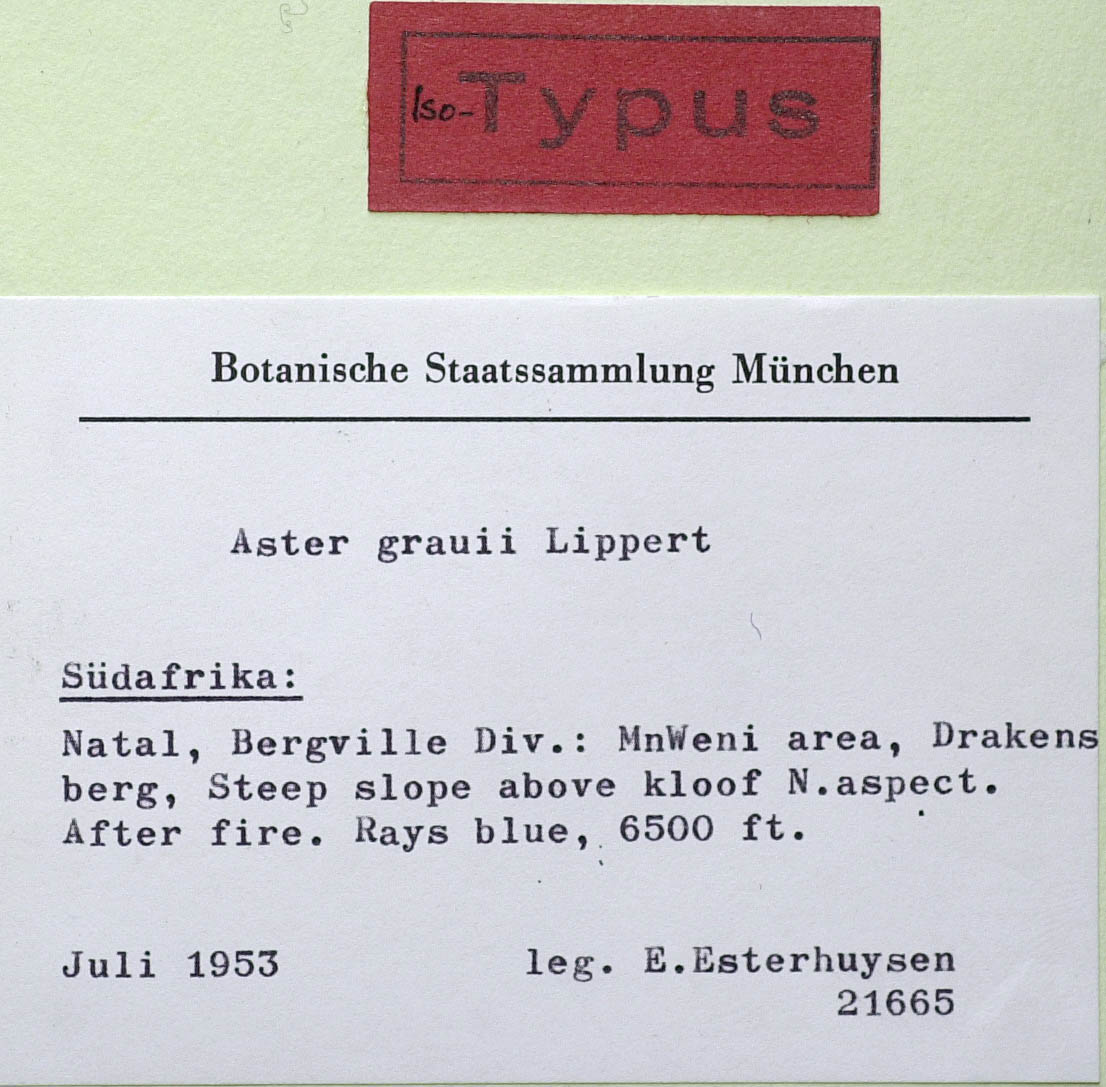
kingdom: Plantae
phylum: Tracheophyta
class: Magnoliopsida
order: Asterales
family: Asteraceae
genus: Afroaster
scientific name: Afroaster hispidus
